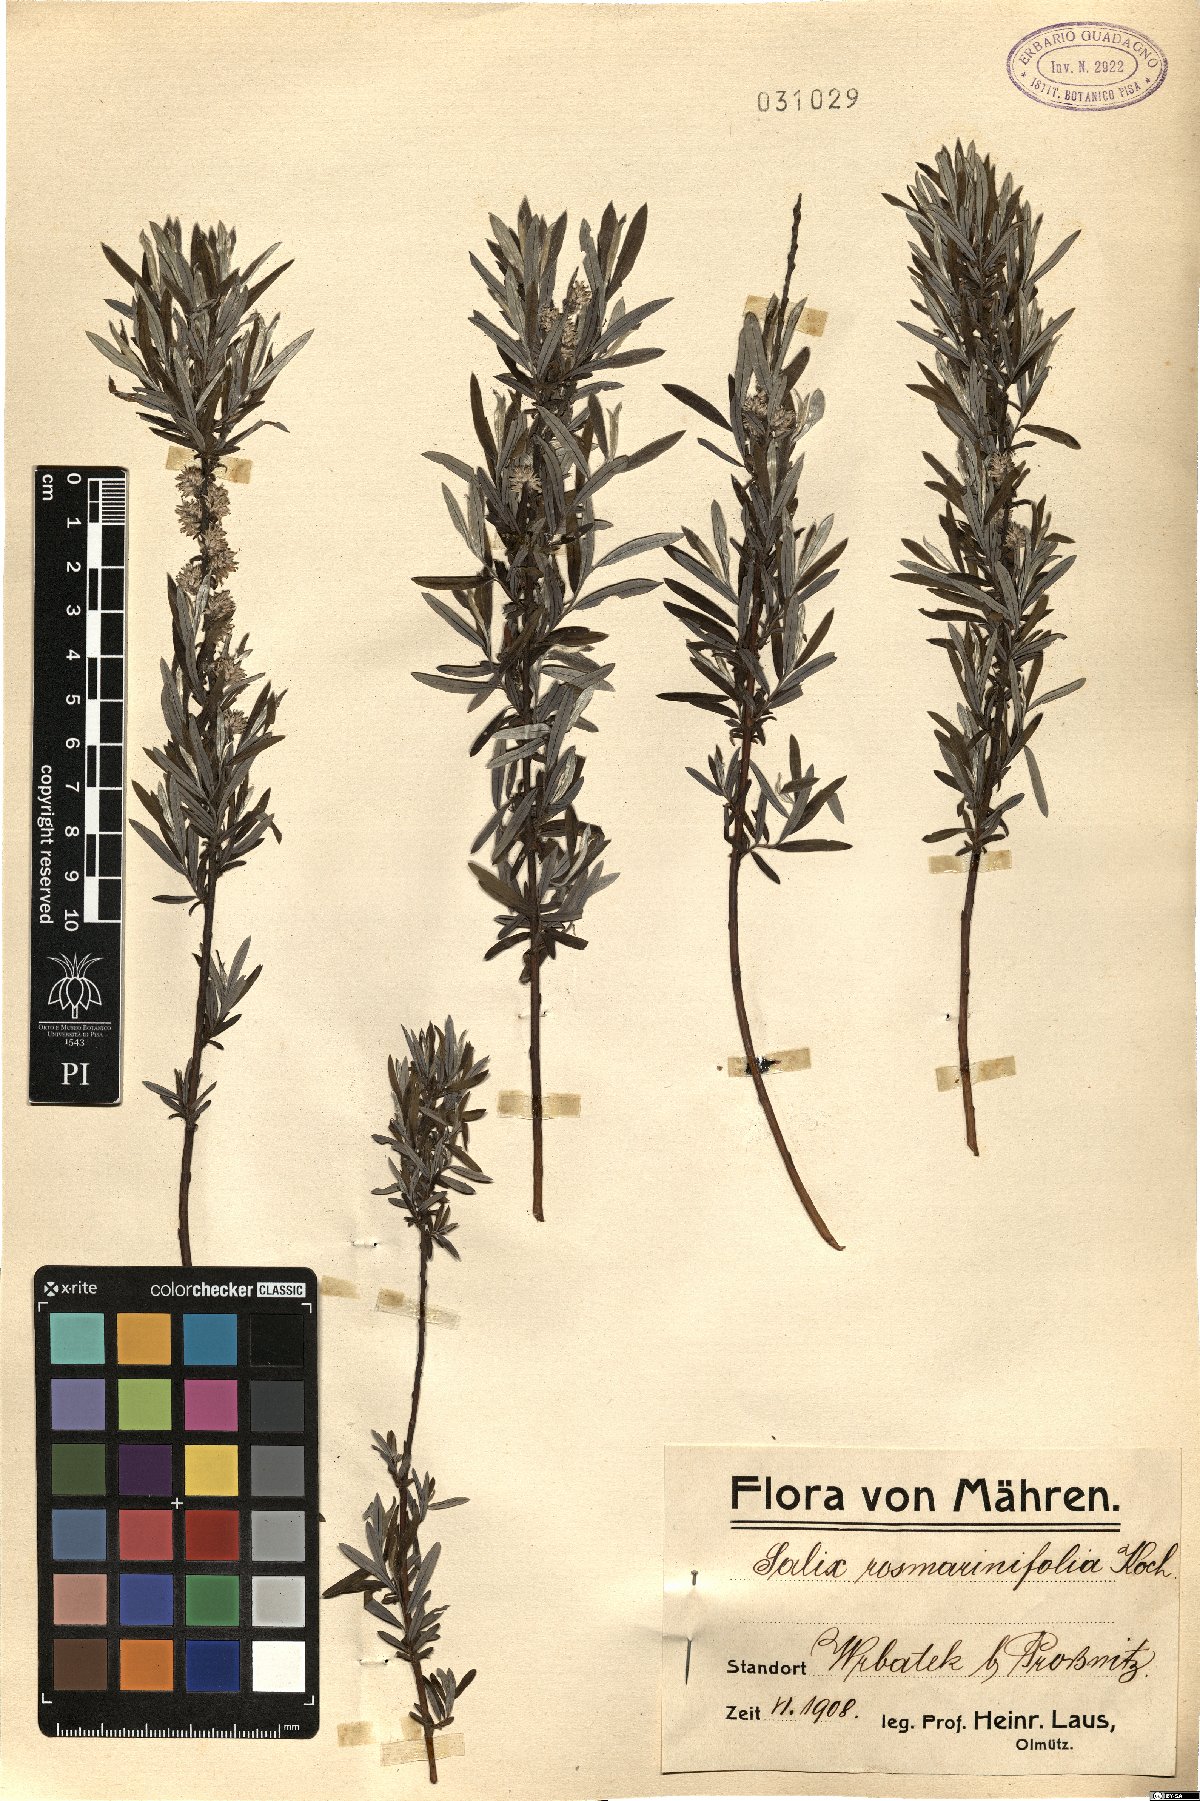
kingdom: Plantae
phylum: Tracheophyta
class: Magnoliopsida
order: Malpighiales
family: Salicaceae
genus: Salix
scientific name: Salix rosmarinifolia
